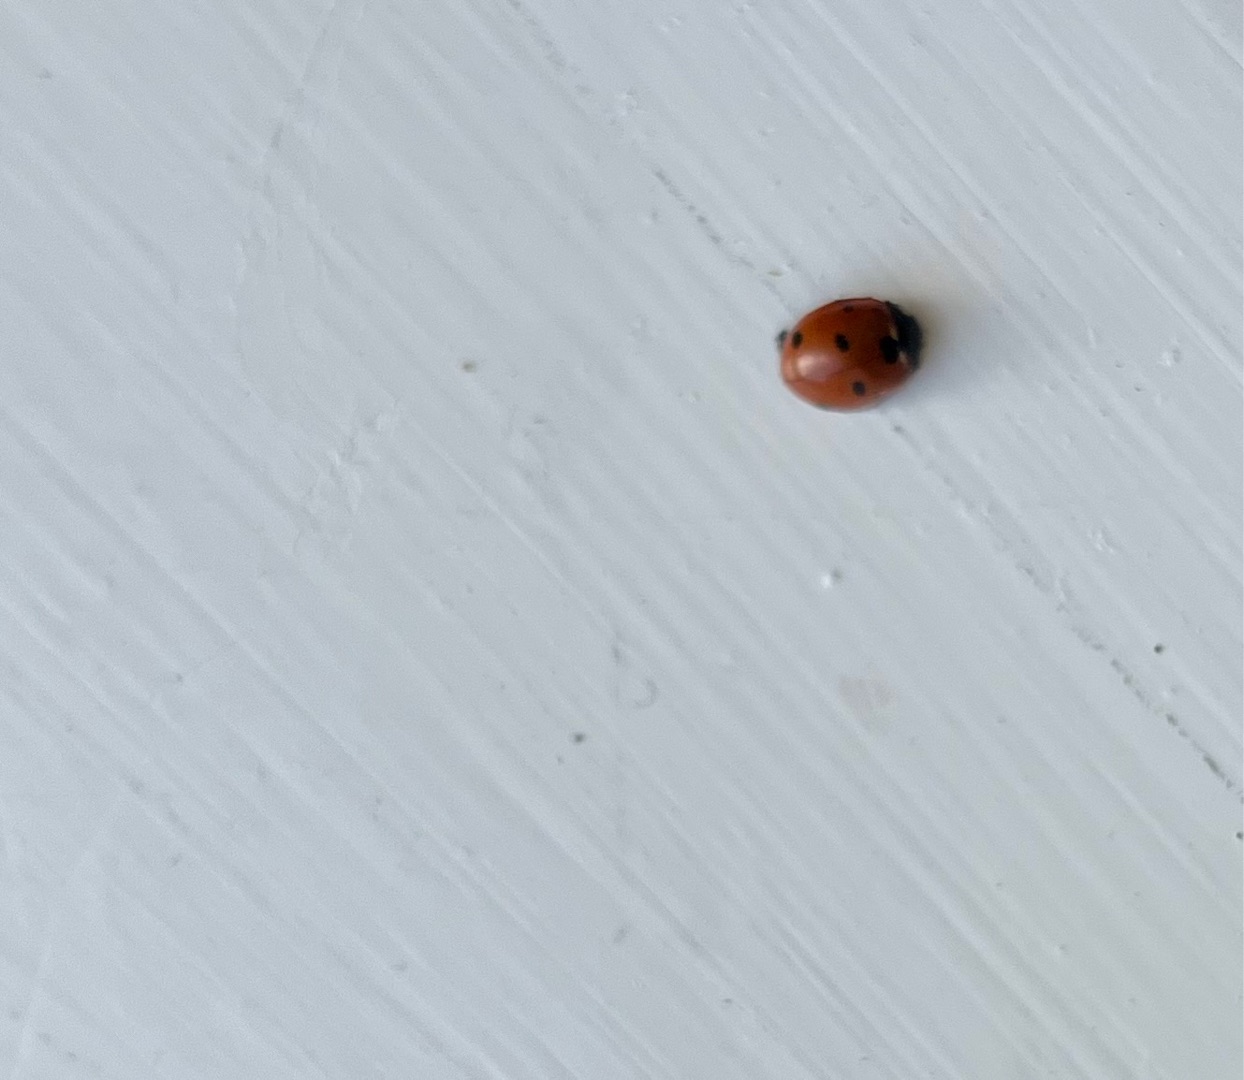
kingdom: Animalia
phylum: Arthropoda
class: Insecta
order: Coleoptera
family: Coccinellidae
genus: Coccinella
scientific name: Coccinella septempunctata
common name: Syvplettet mariehøne
